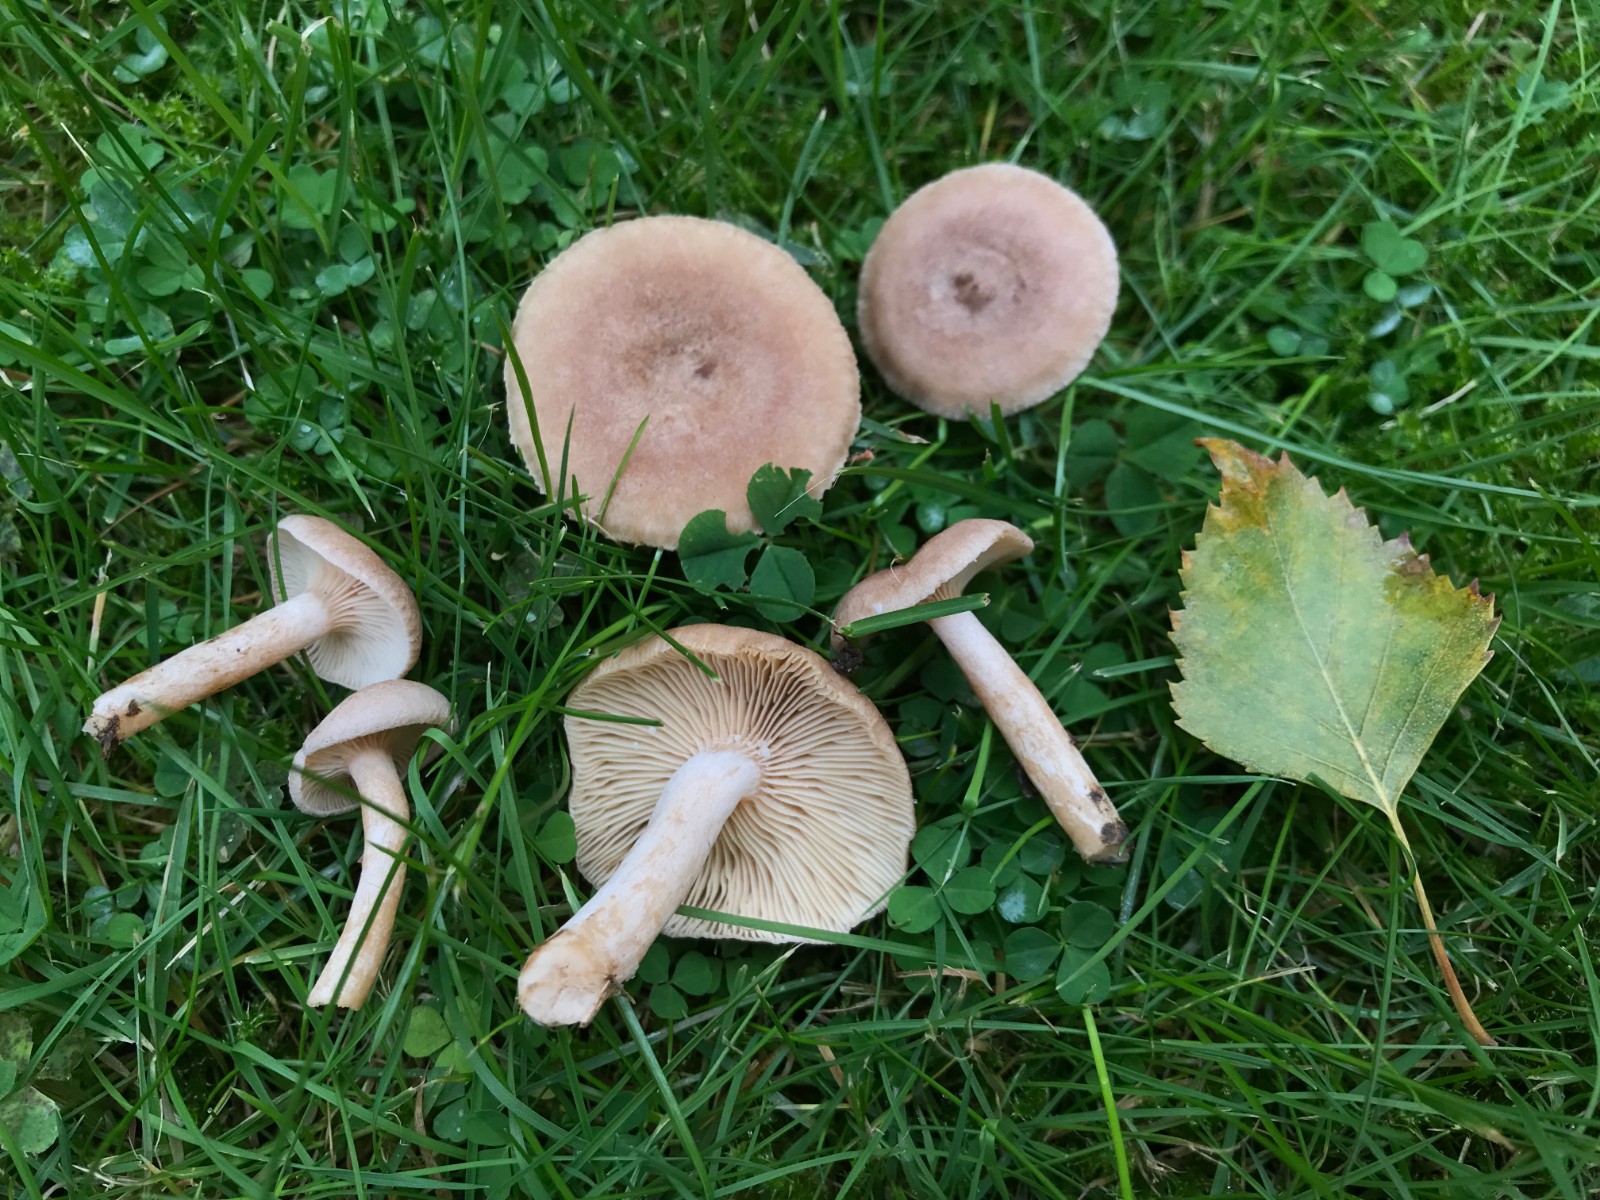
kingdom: Fungi
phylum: Basidiomycota
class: Agaricomycetes
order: Russulales
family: Russulaceae
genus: Lactarius
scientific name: Lactarius glyciosmus
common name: kokos-mælkehat
